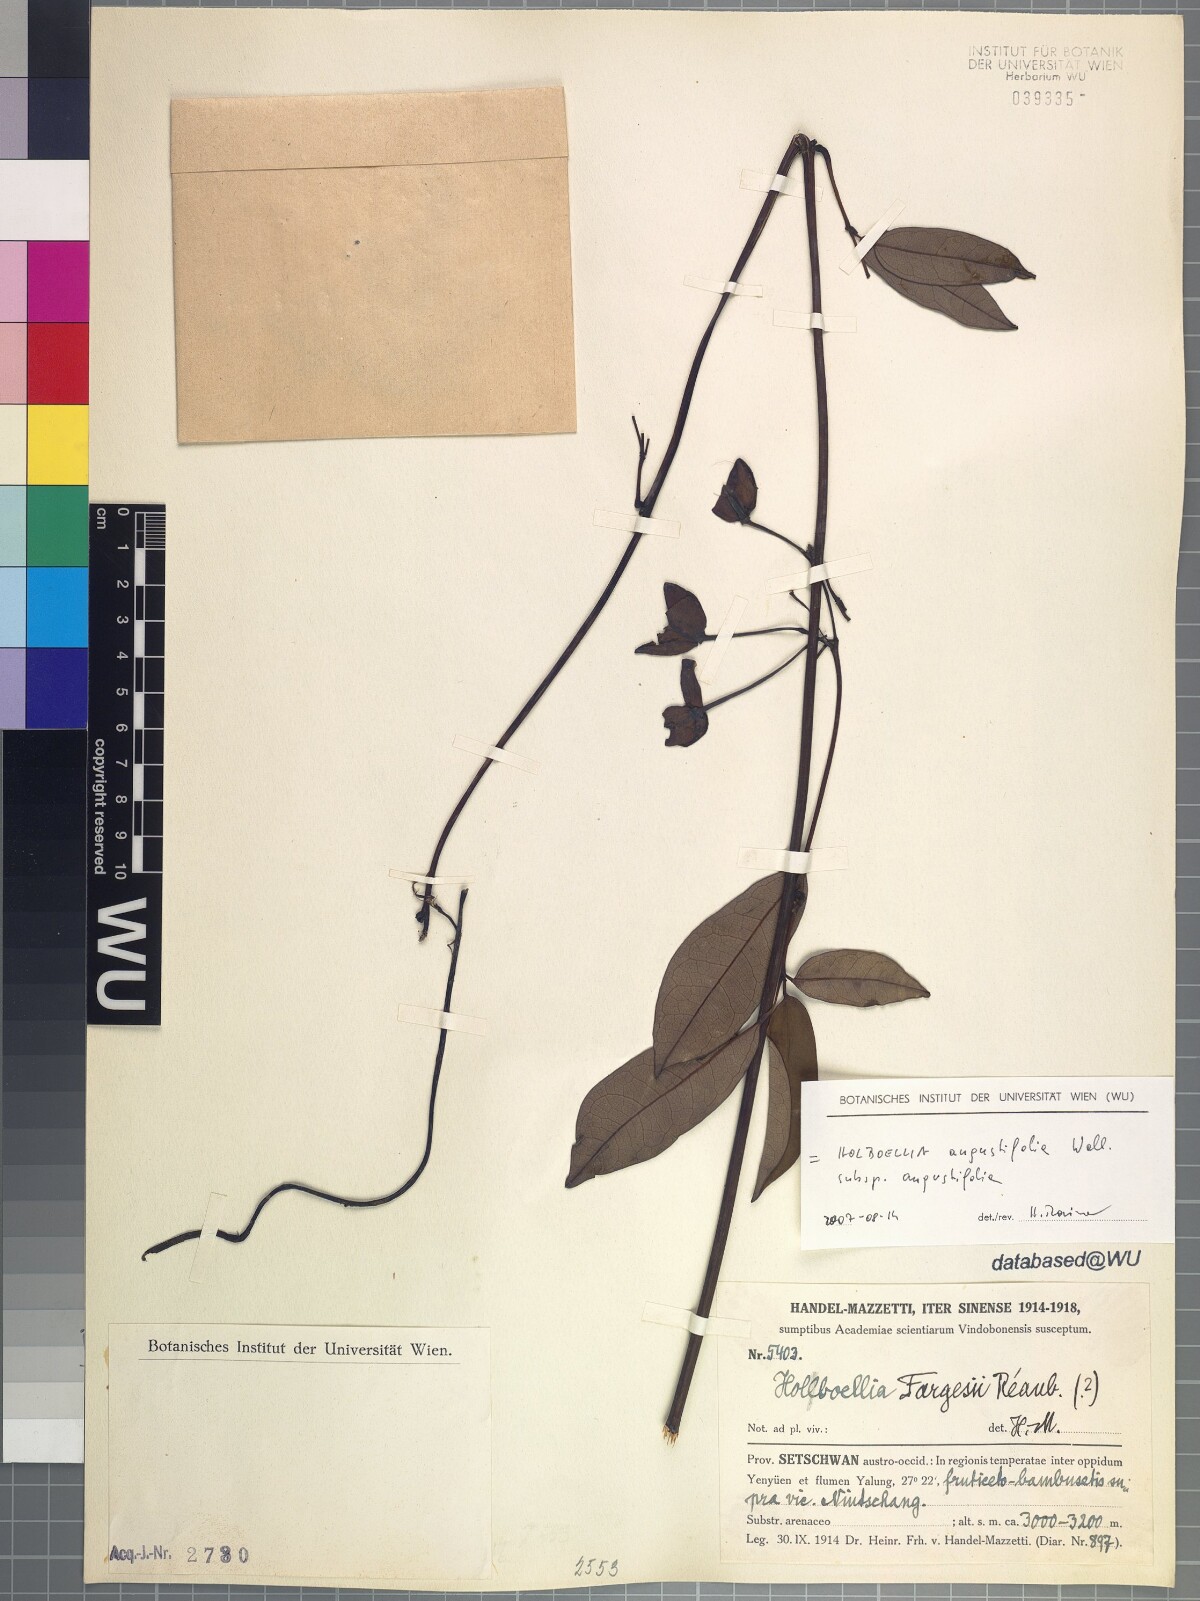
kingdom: Plantae
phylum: Tracheophyta
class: Magnoliopsida
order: Ranunculales
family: Lardizabalaceae
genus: Stauntonia
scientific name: Stauntonia angustifolia
